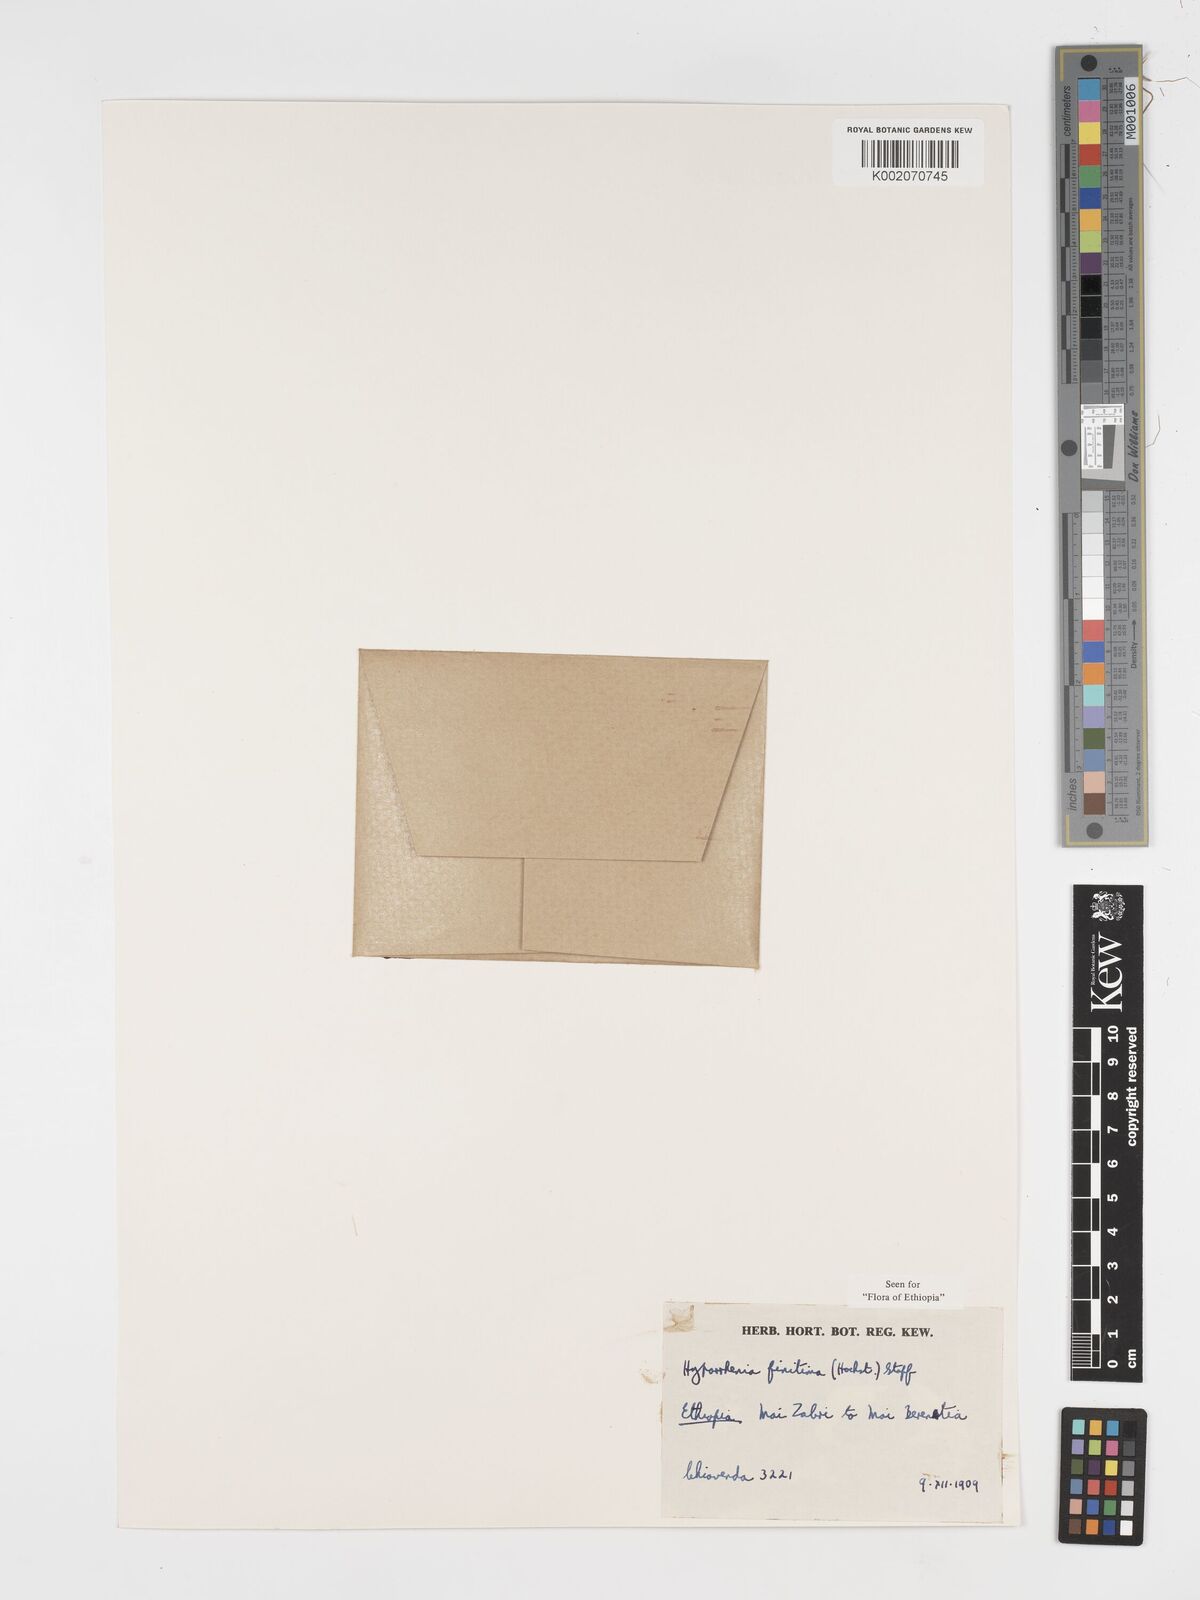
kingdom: Plantae
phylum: Tracheophyta
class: Liliopsida
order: Poales
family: Poaceae
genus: Hyparrhenia
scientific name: Hyparrhenia finitima
